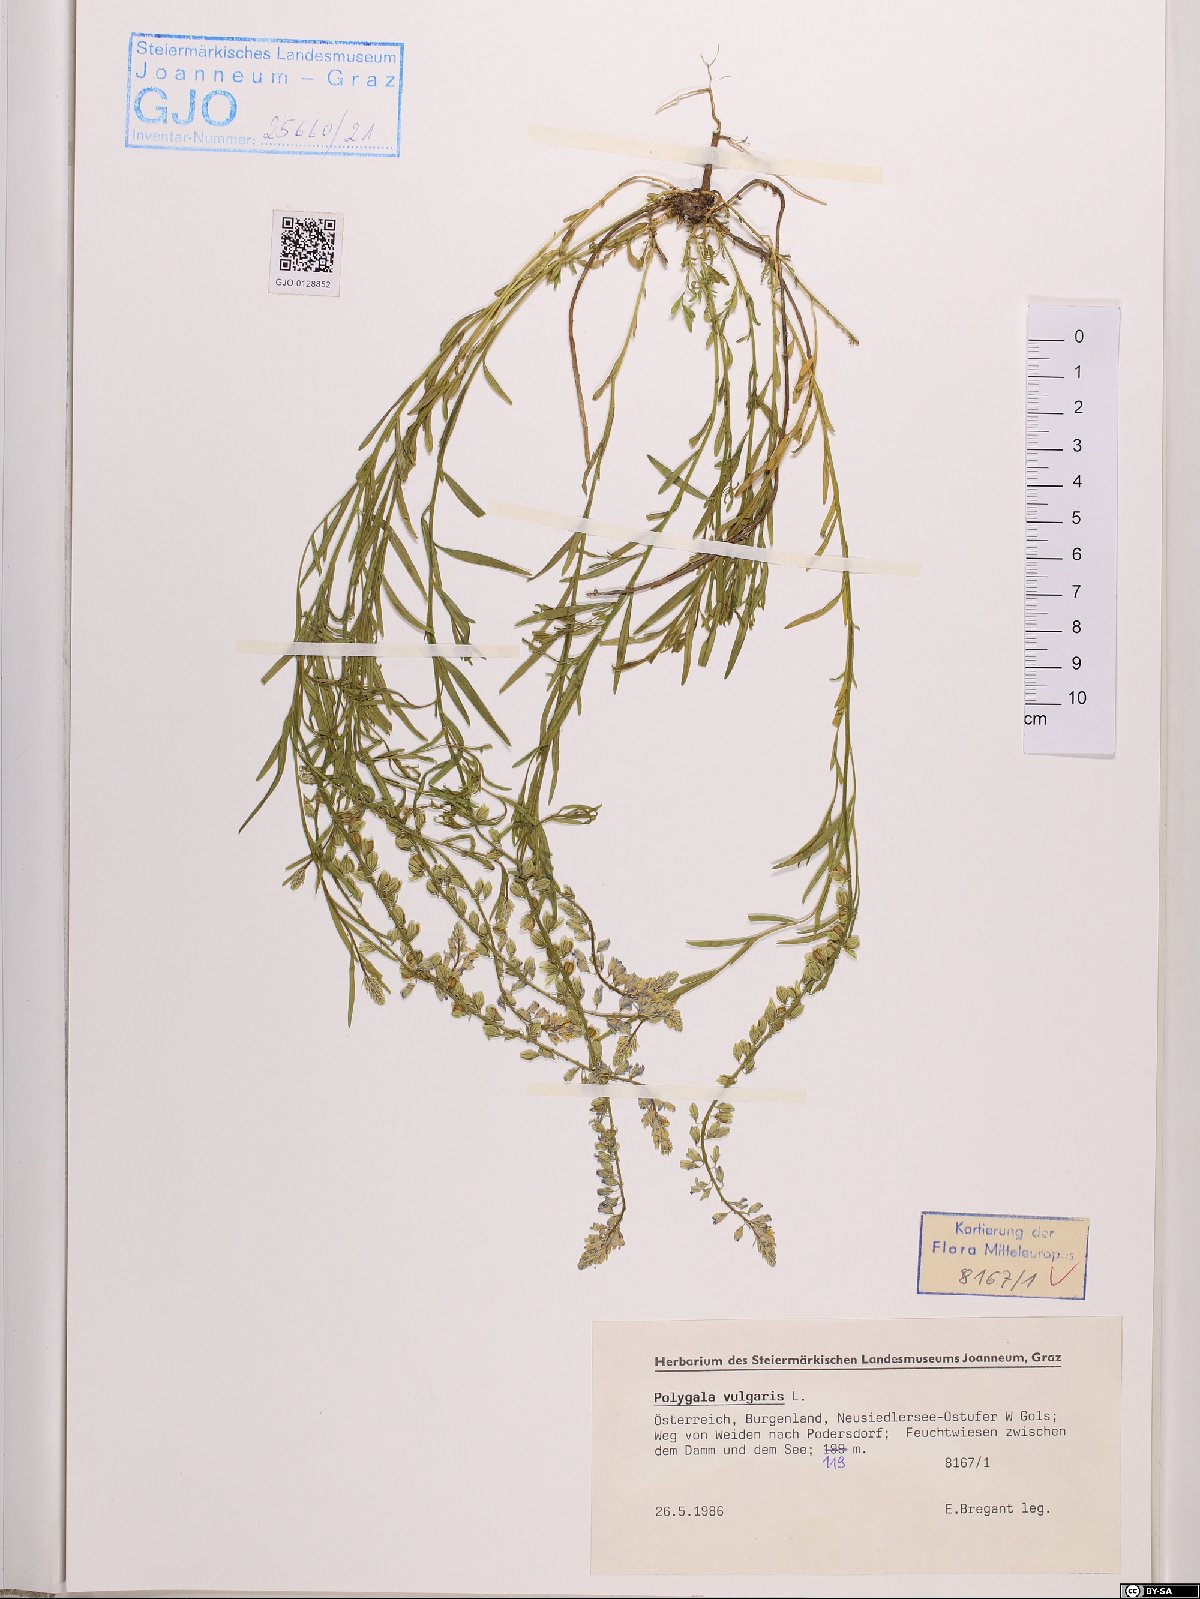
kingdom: Plantae
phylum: Tracheophyta
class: Magnoliopsida
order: Fabales
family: Polygalaceae
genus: Polygala
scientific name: Polygala vulgaris
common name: Common milkwort
